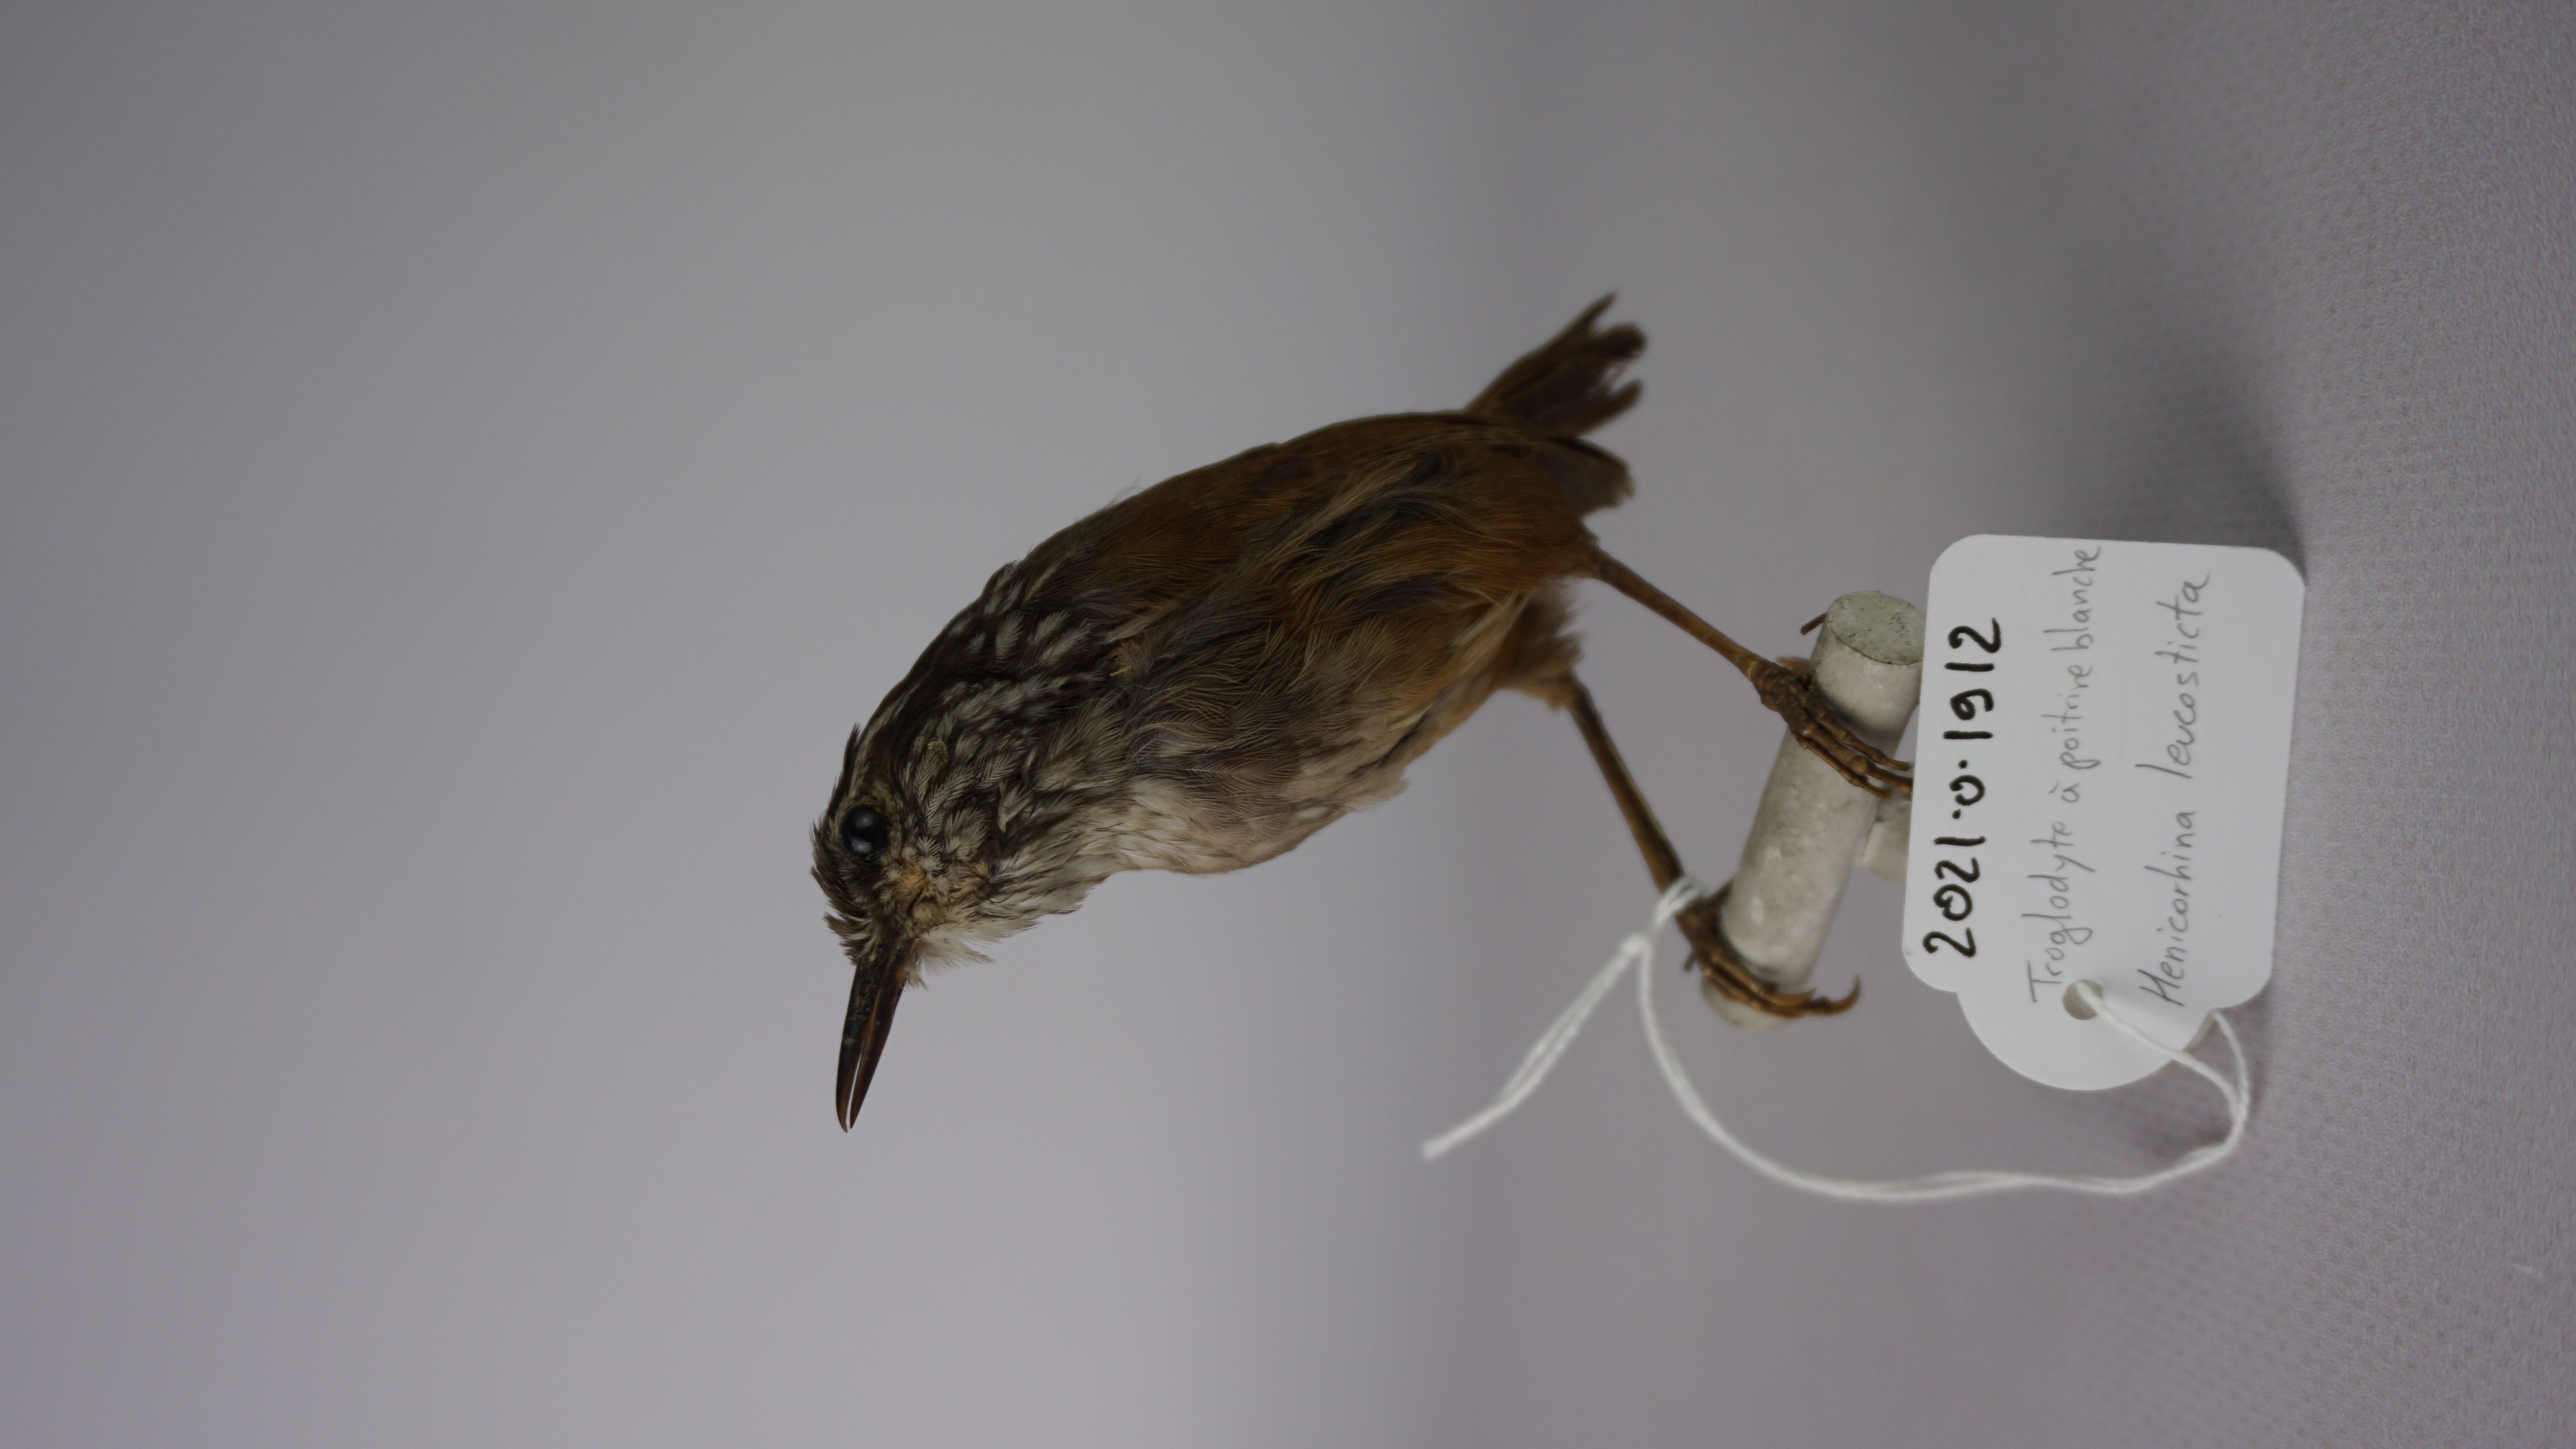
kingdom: Animalia
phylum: Chordata
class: Aves
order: Passeriformes
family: Troglodytidae
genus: Henicorhina
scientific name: Henicorhina leucosticta
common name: White-breasted wood-wren
